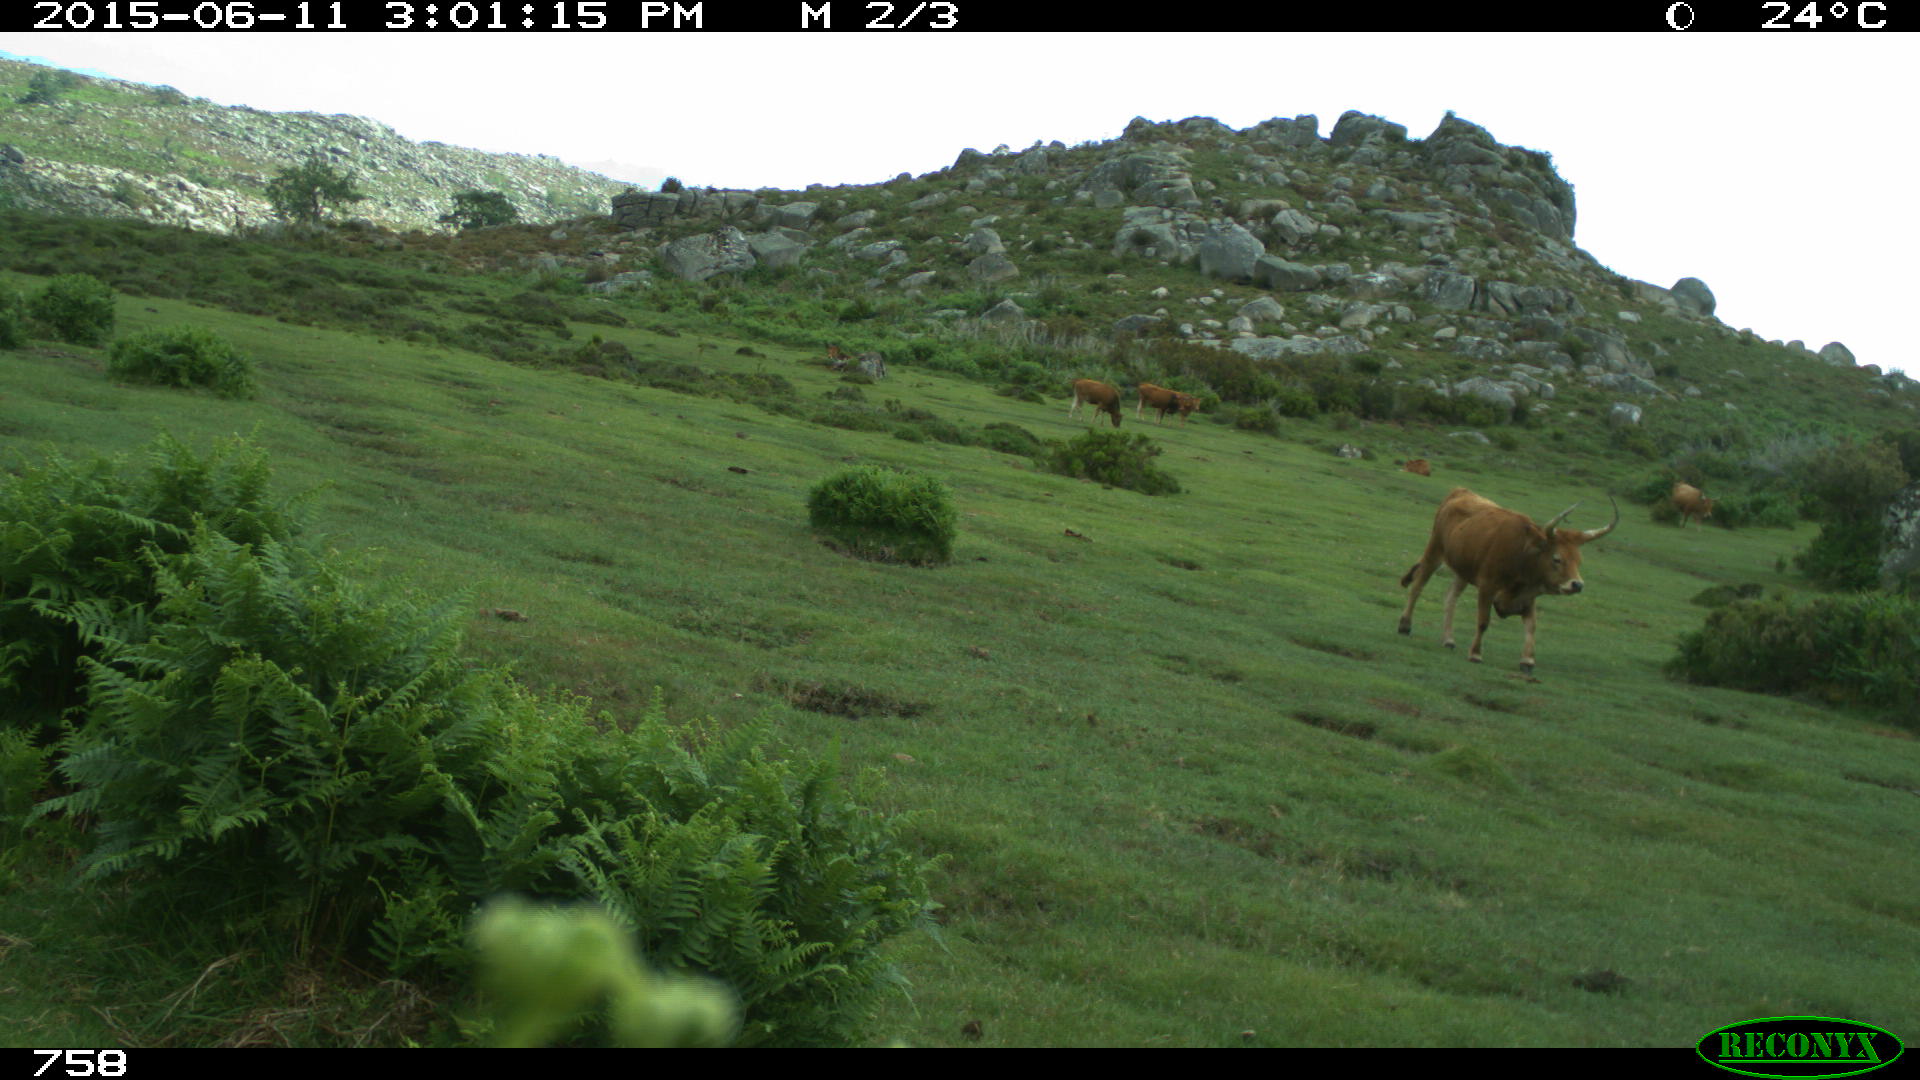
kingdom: Animalia
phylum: Chordata
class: Mammalia
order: Artiodactyla
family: Bovidae
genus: Bos
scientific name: Bos taurus
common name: Domesticated cattle
